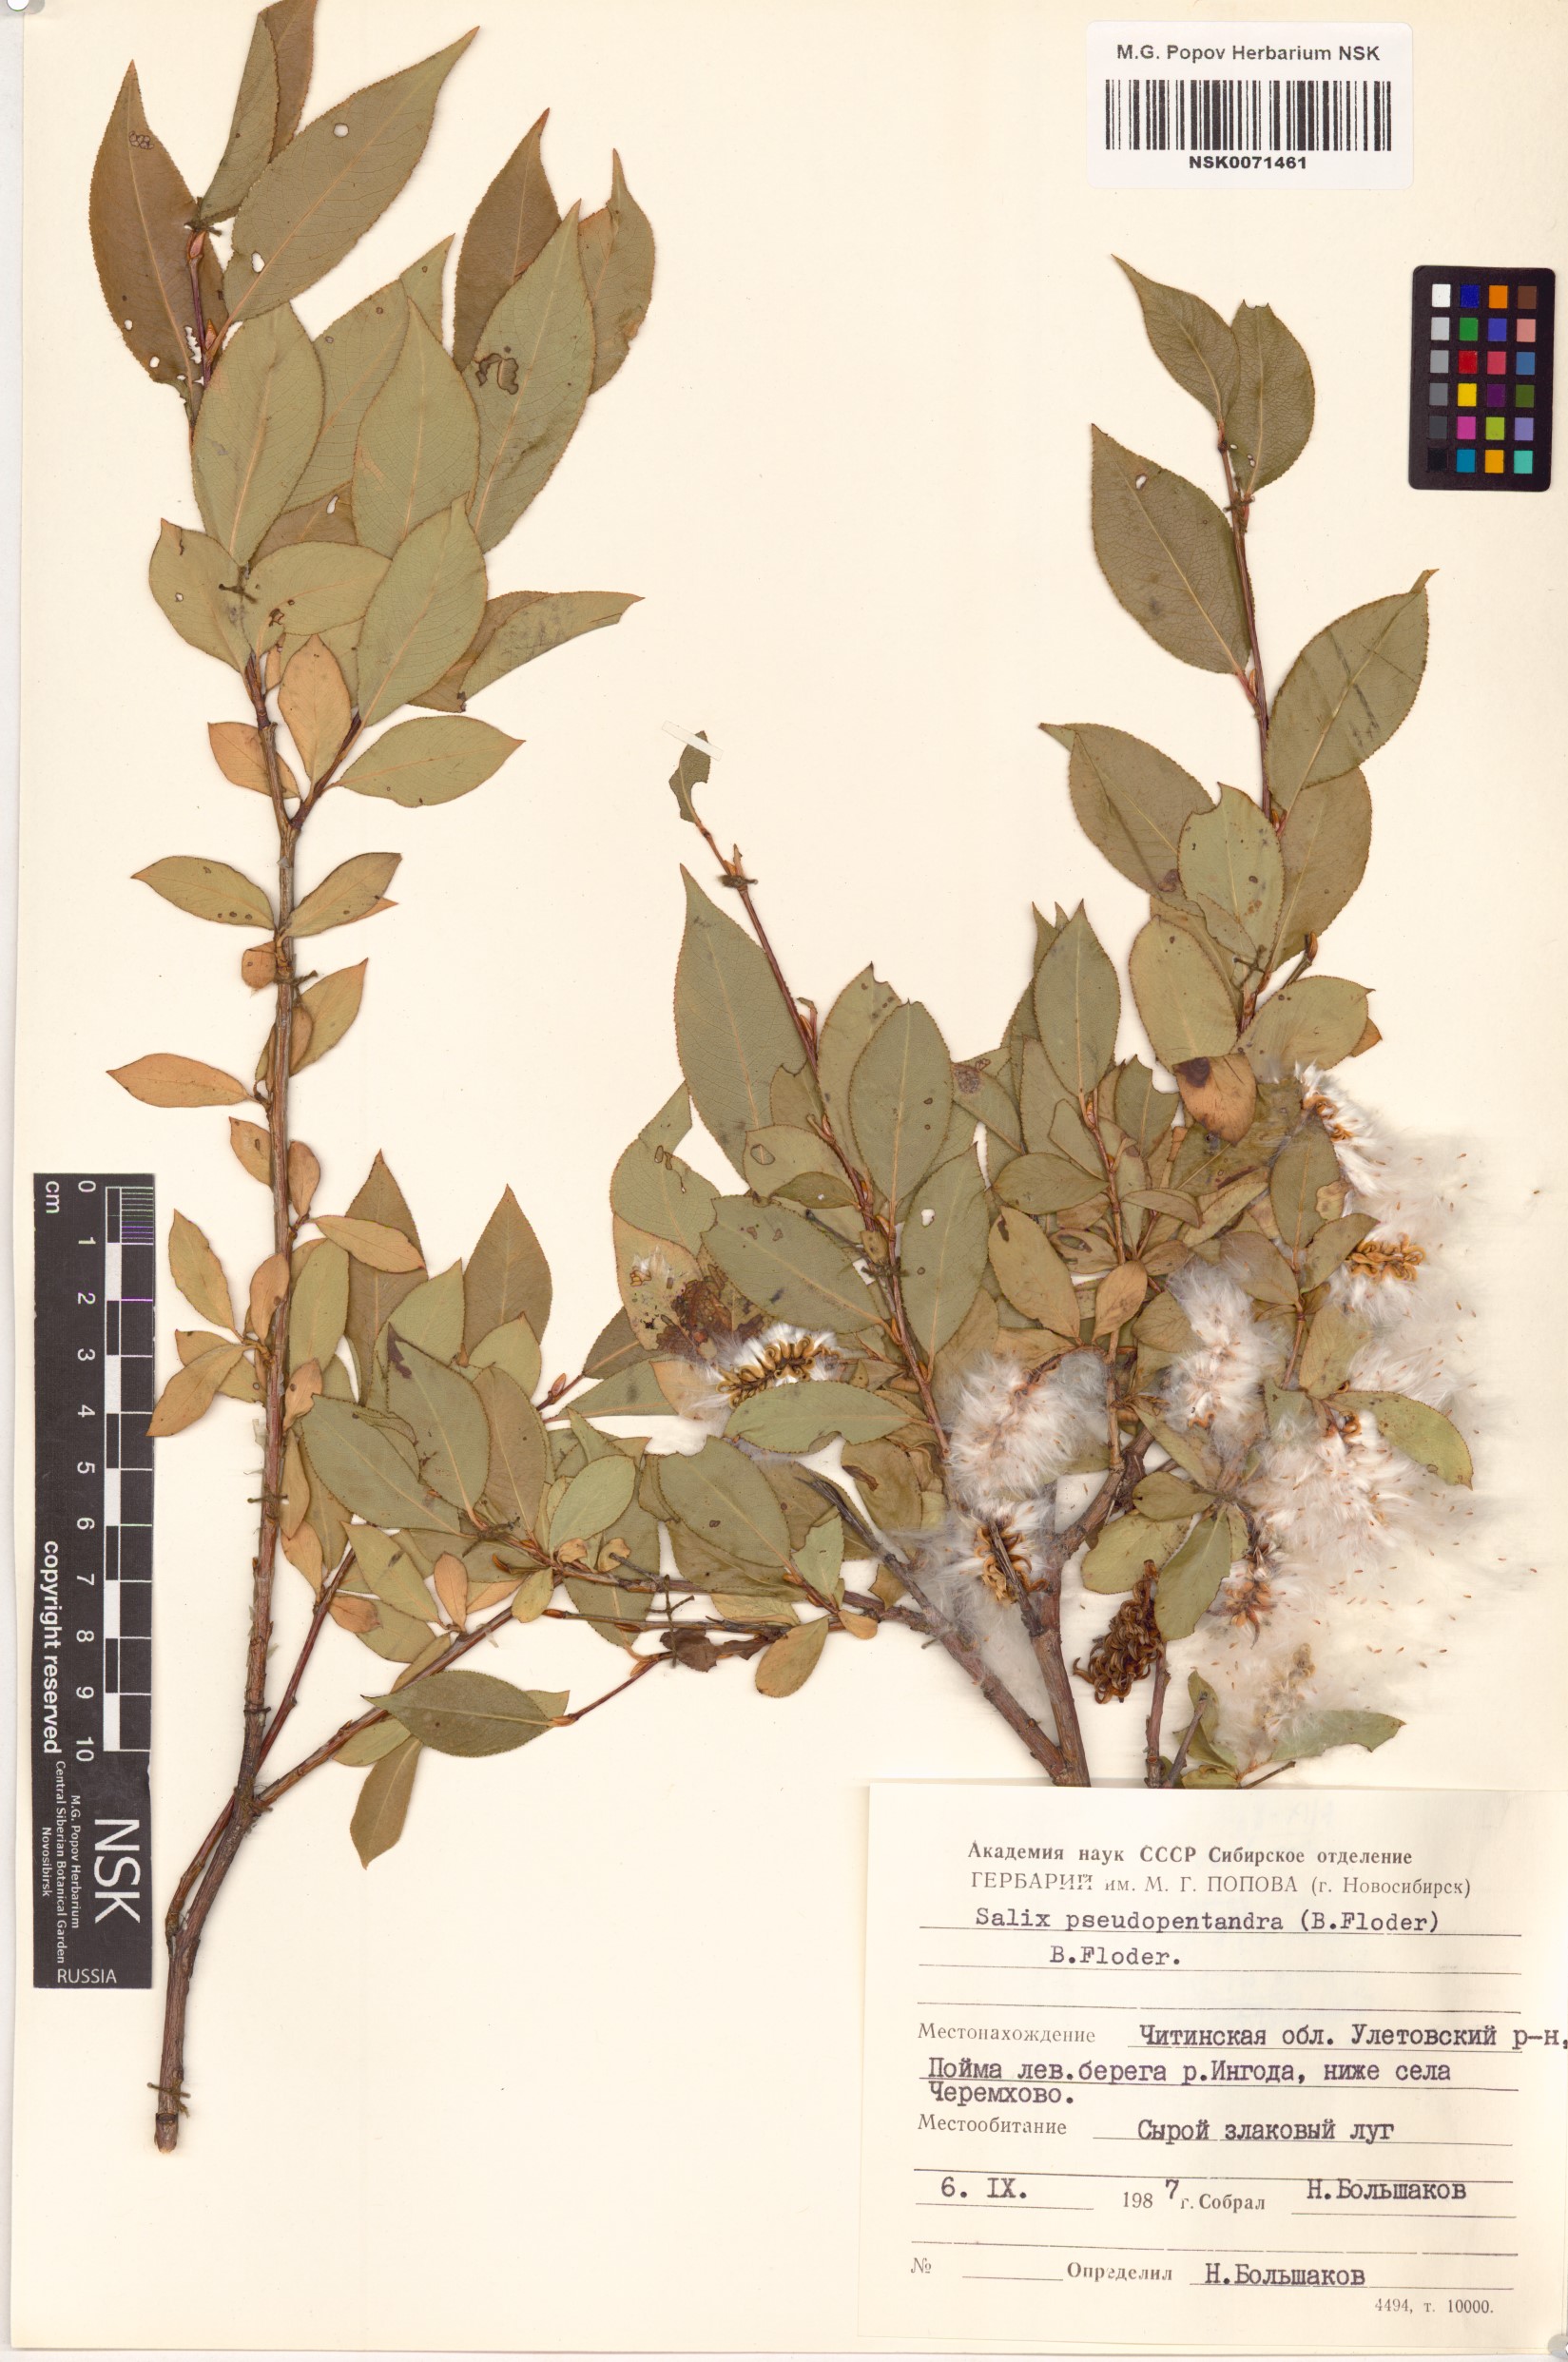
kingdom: Plantae
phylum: Tracheophyta
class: Magnoliopsida
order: Malpighiales
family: Salicaceae
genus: Salix
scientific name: Salix pseudopentandra
